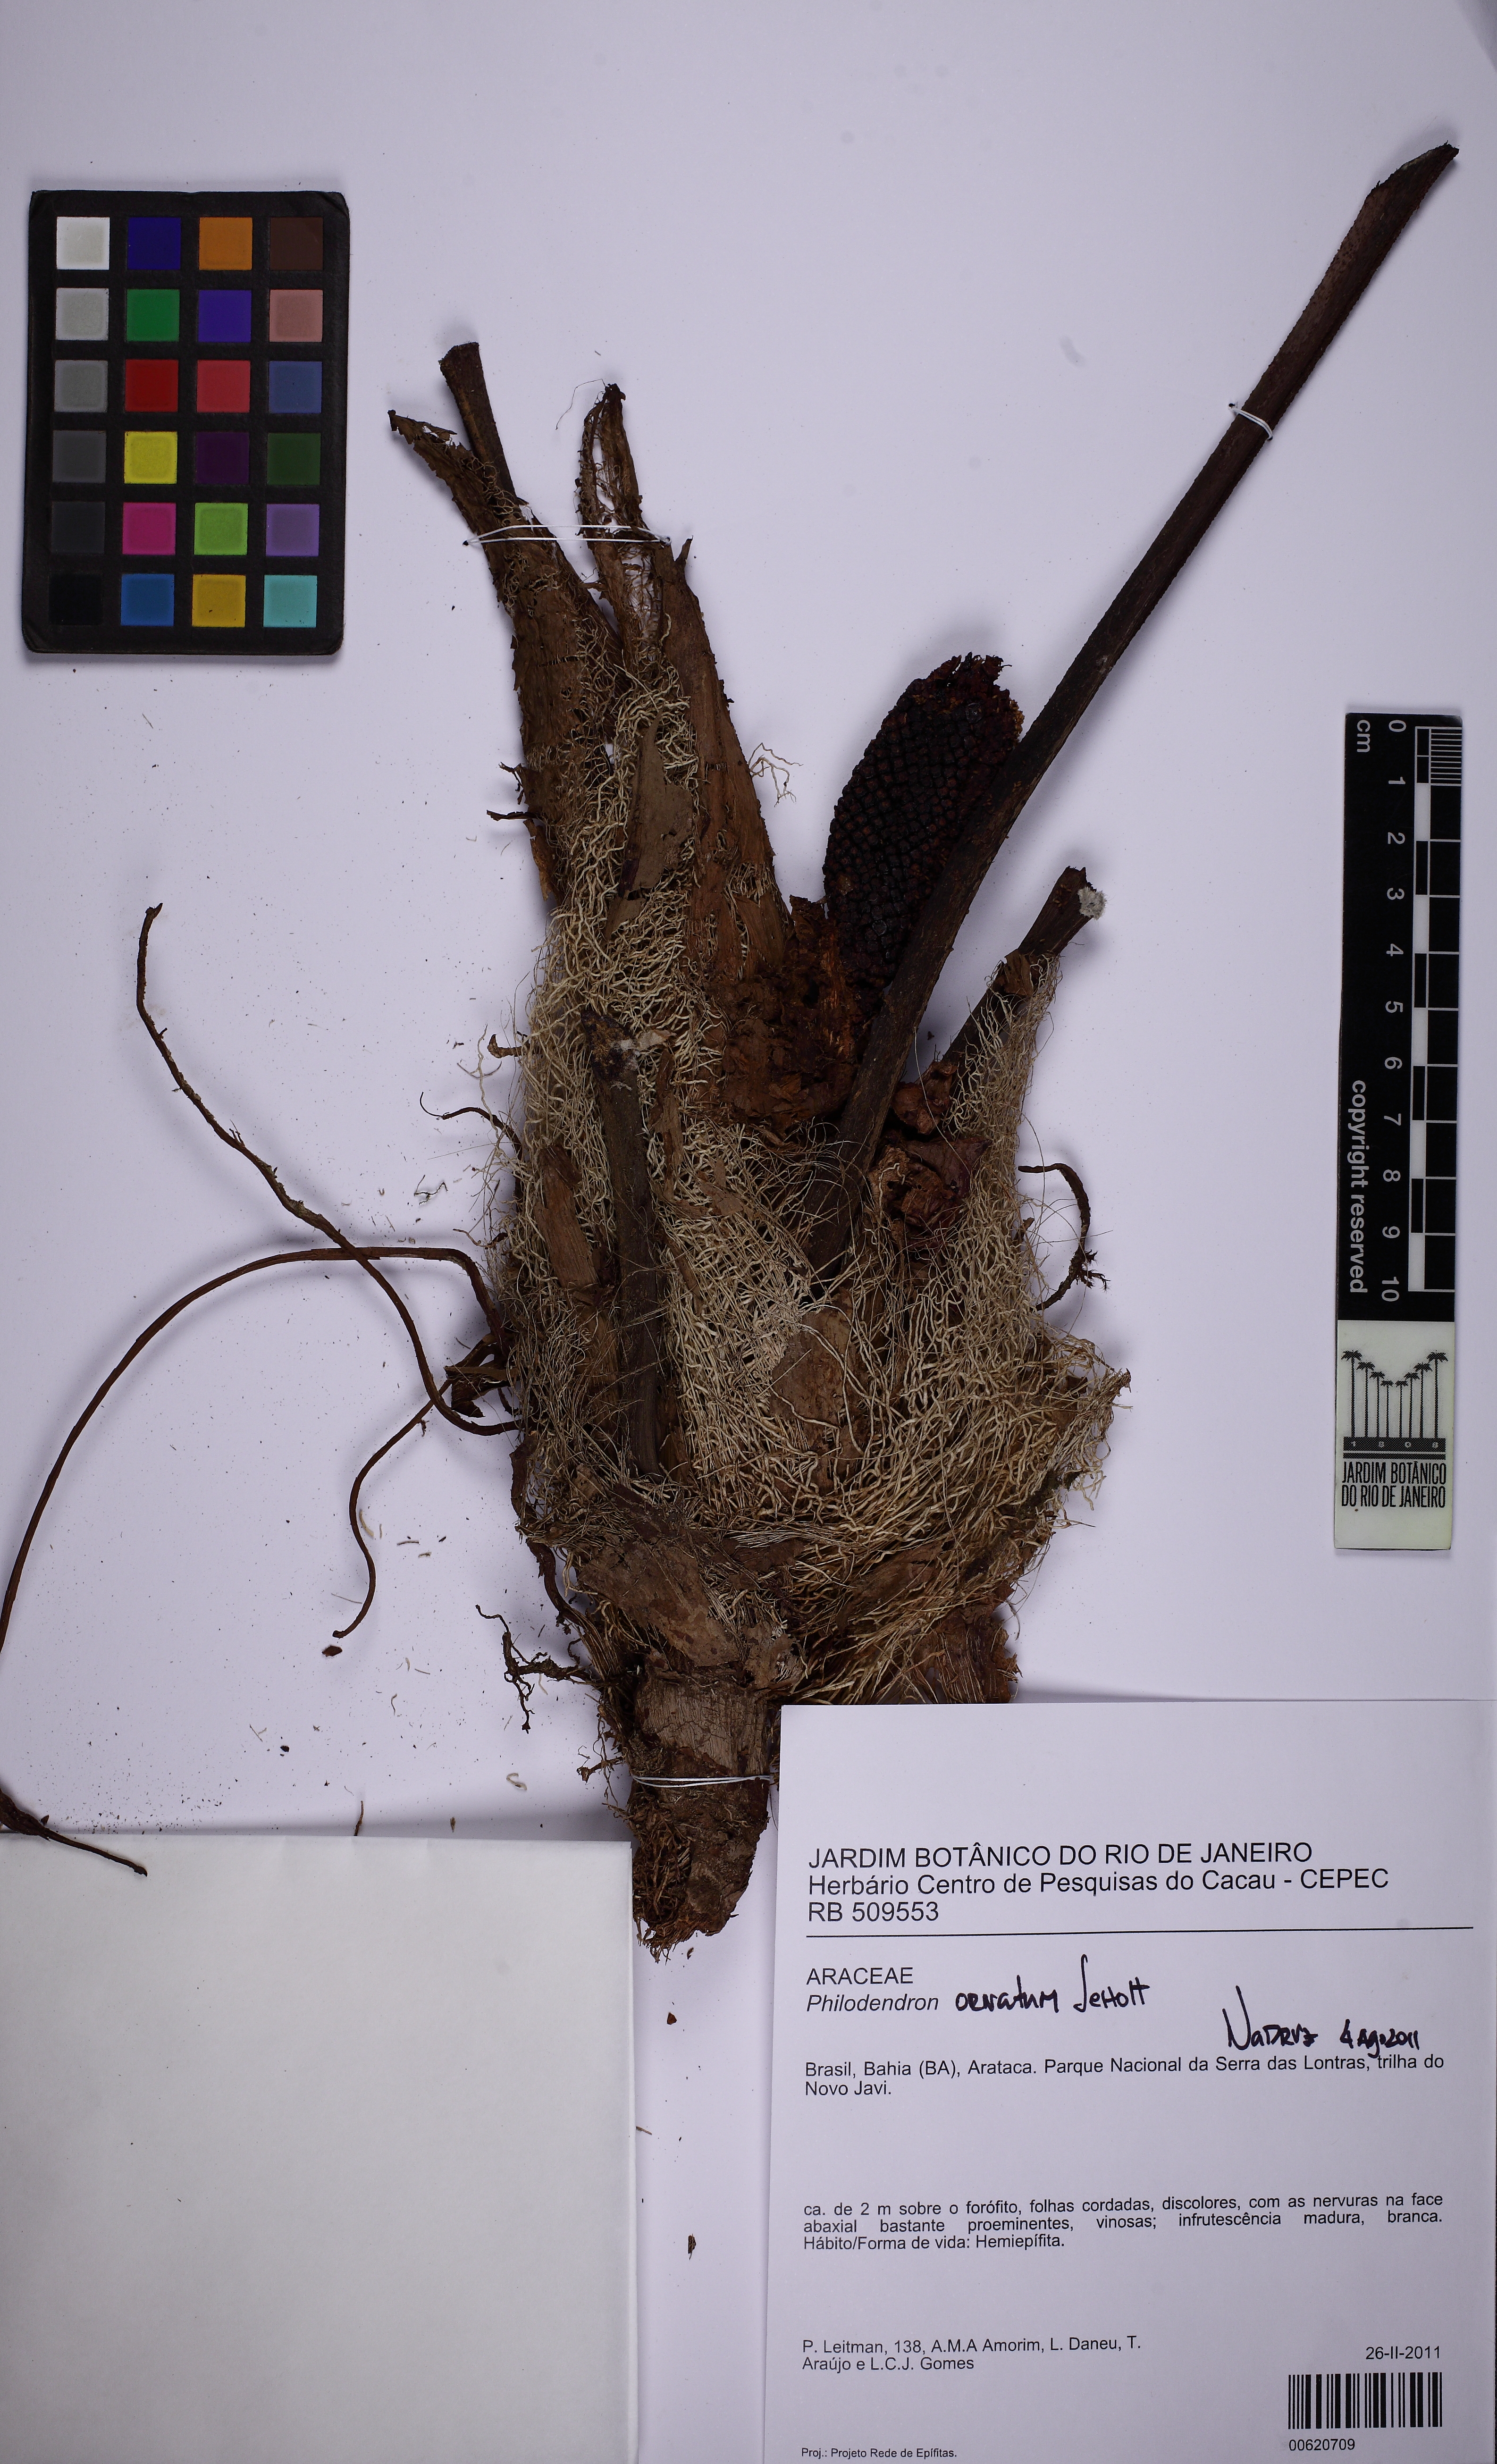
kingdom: Plantae
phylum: Tracheophyta
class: Liliopsida
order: Alismatales
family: Araceae
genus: Philodendron
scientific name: Philodendron ornatum
